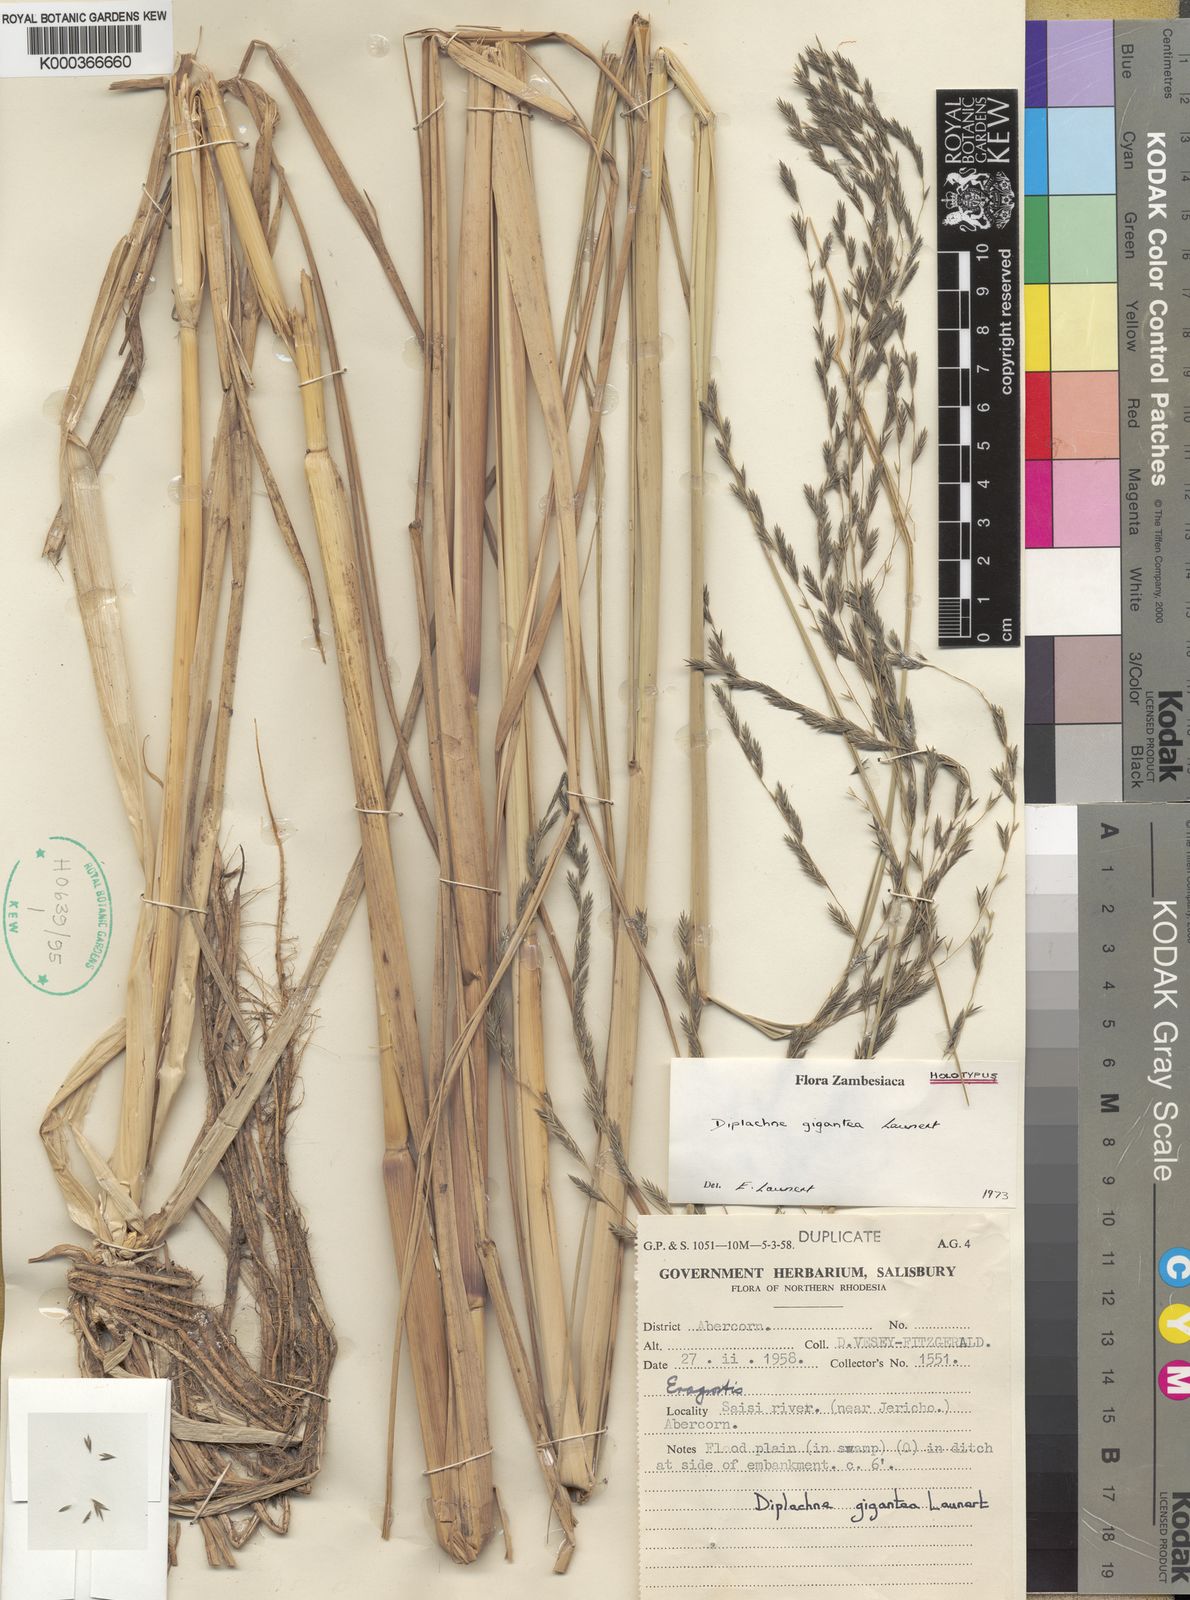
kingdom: Plantae
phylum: Tracheophyta
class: Liliopsida
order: Poales
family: Poaceae
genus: Diplachne
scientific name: Diplachne gigantea
